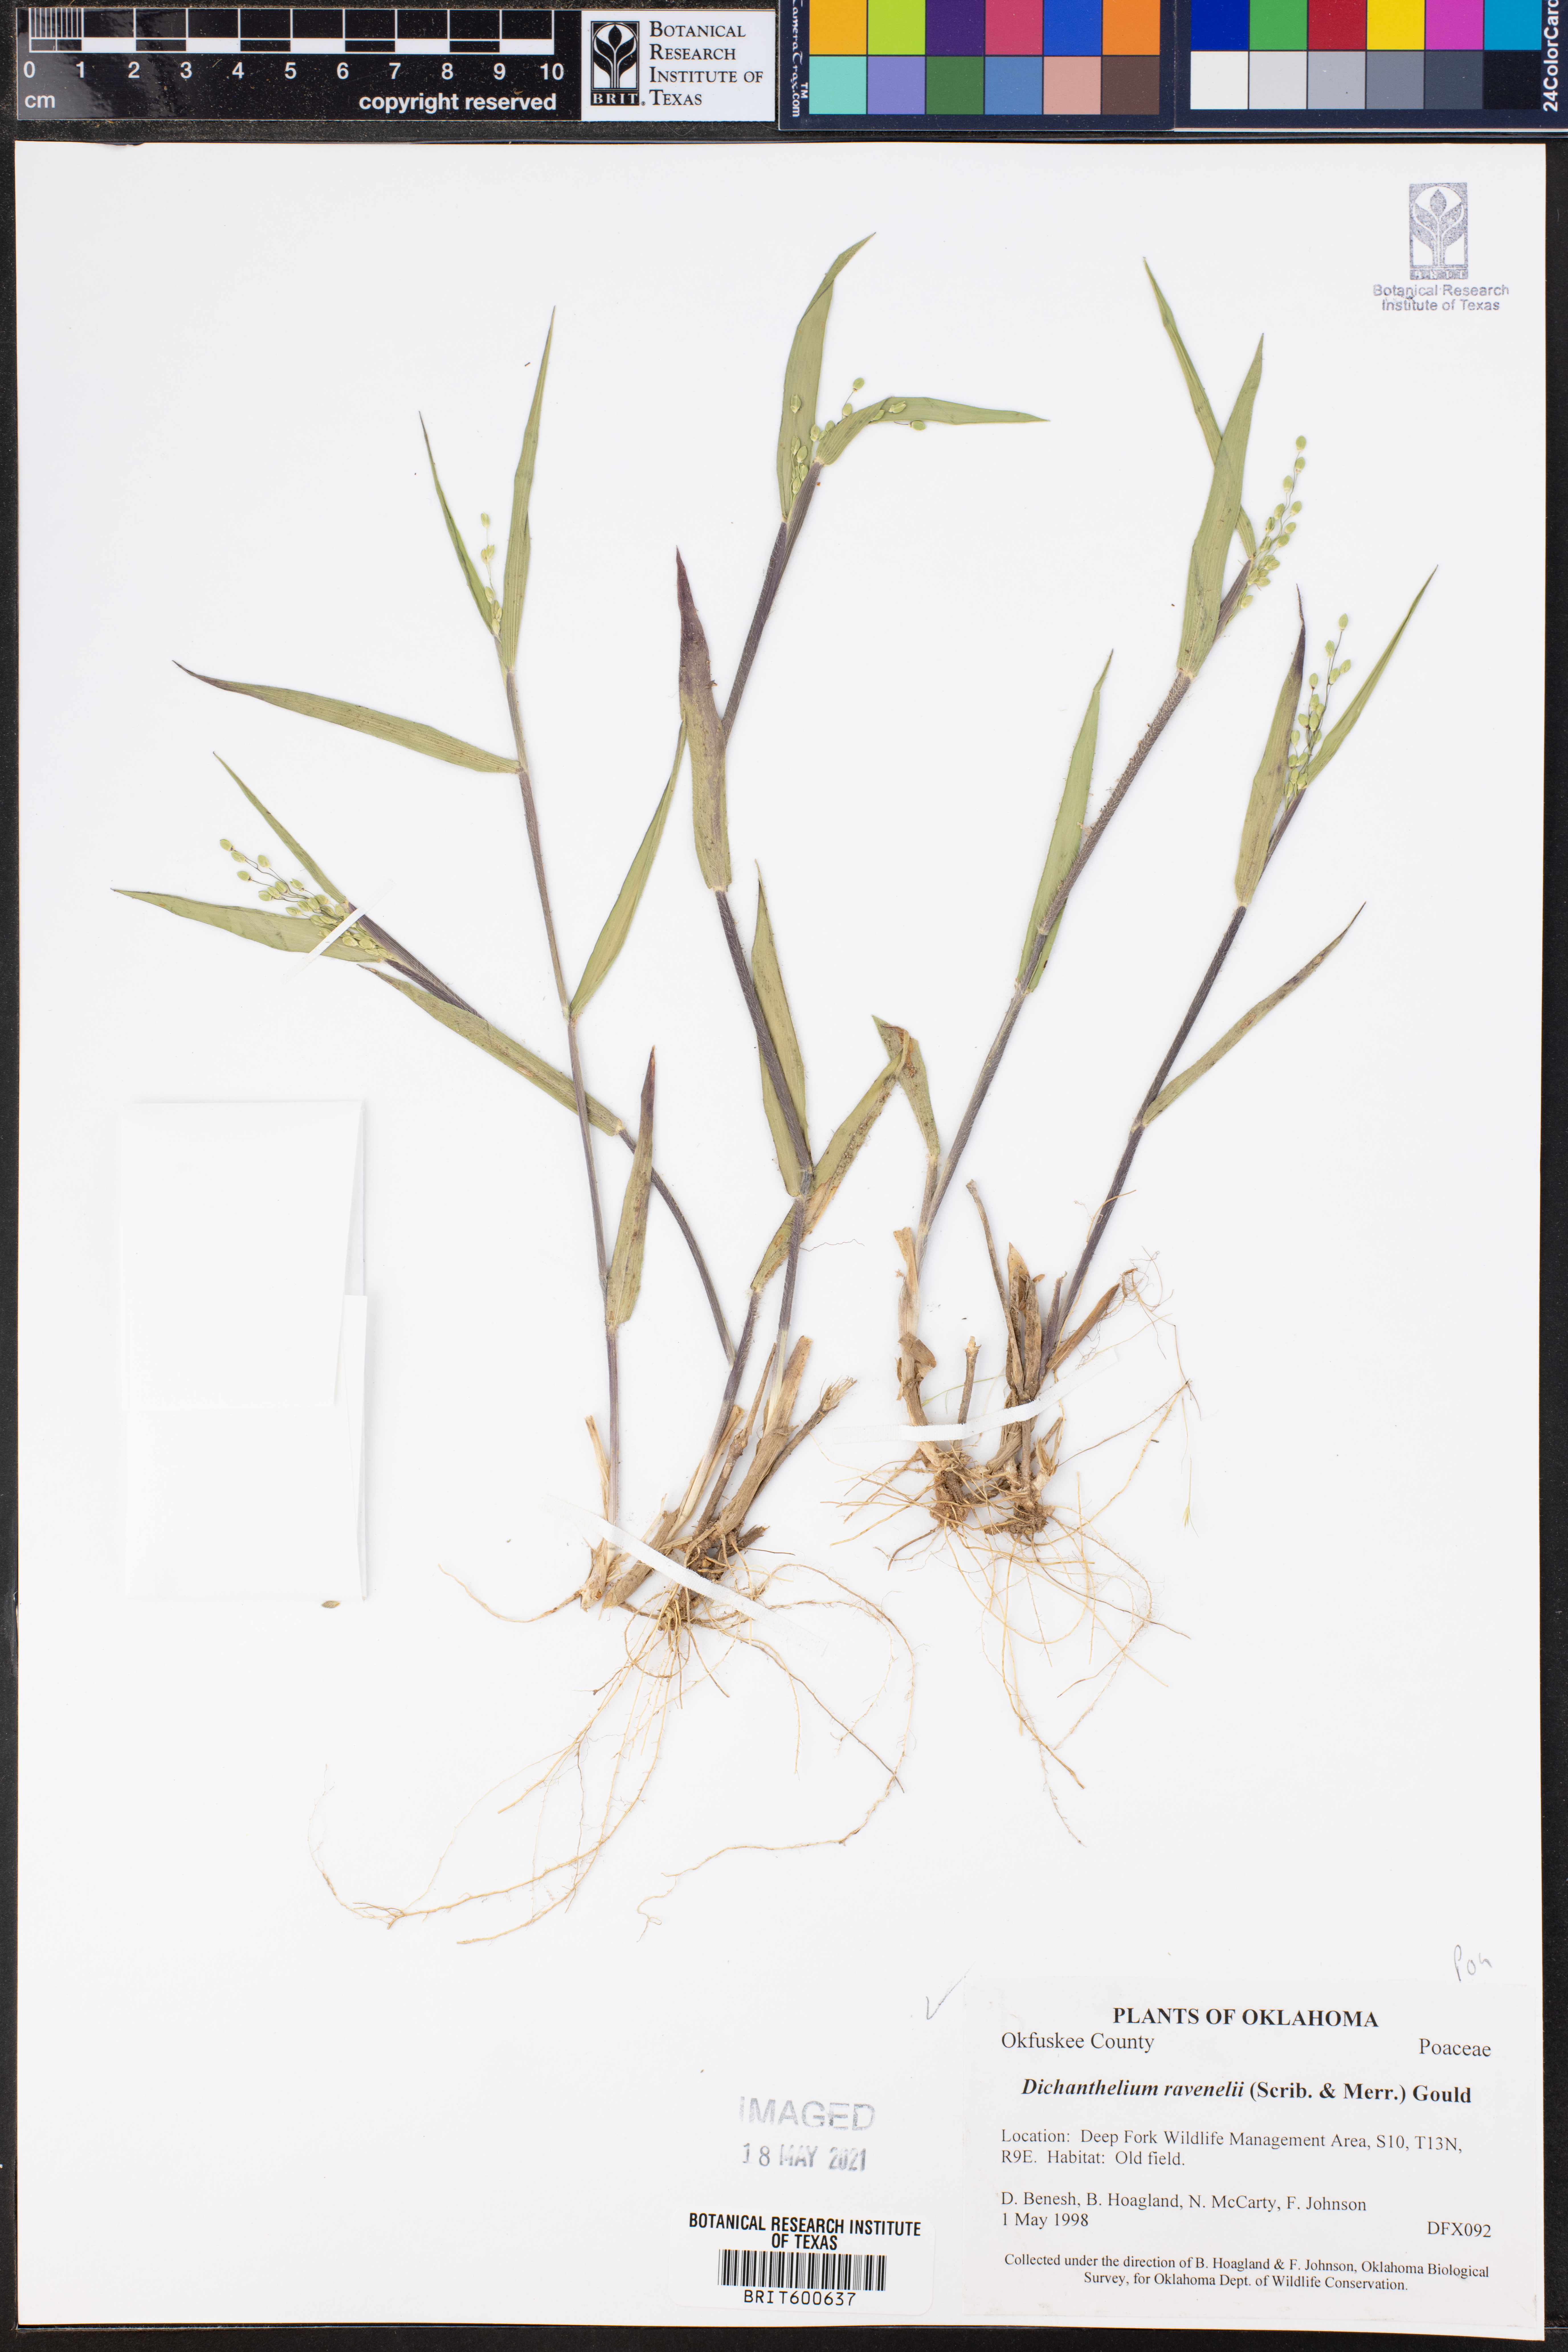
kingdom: Plantae
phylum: Tracheophyta
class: Liliopsida
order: Poales
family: Poaceae
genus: Dichanthelium
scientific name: Dichanthelium ravenelii
